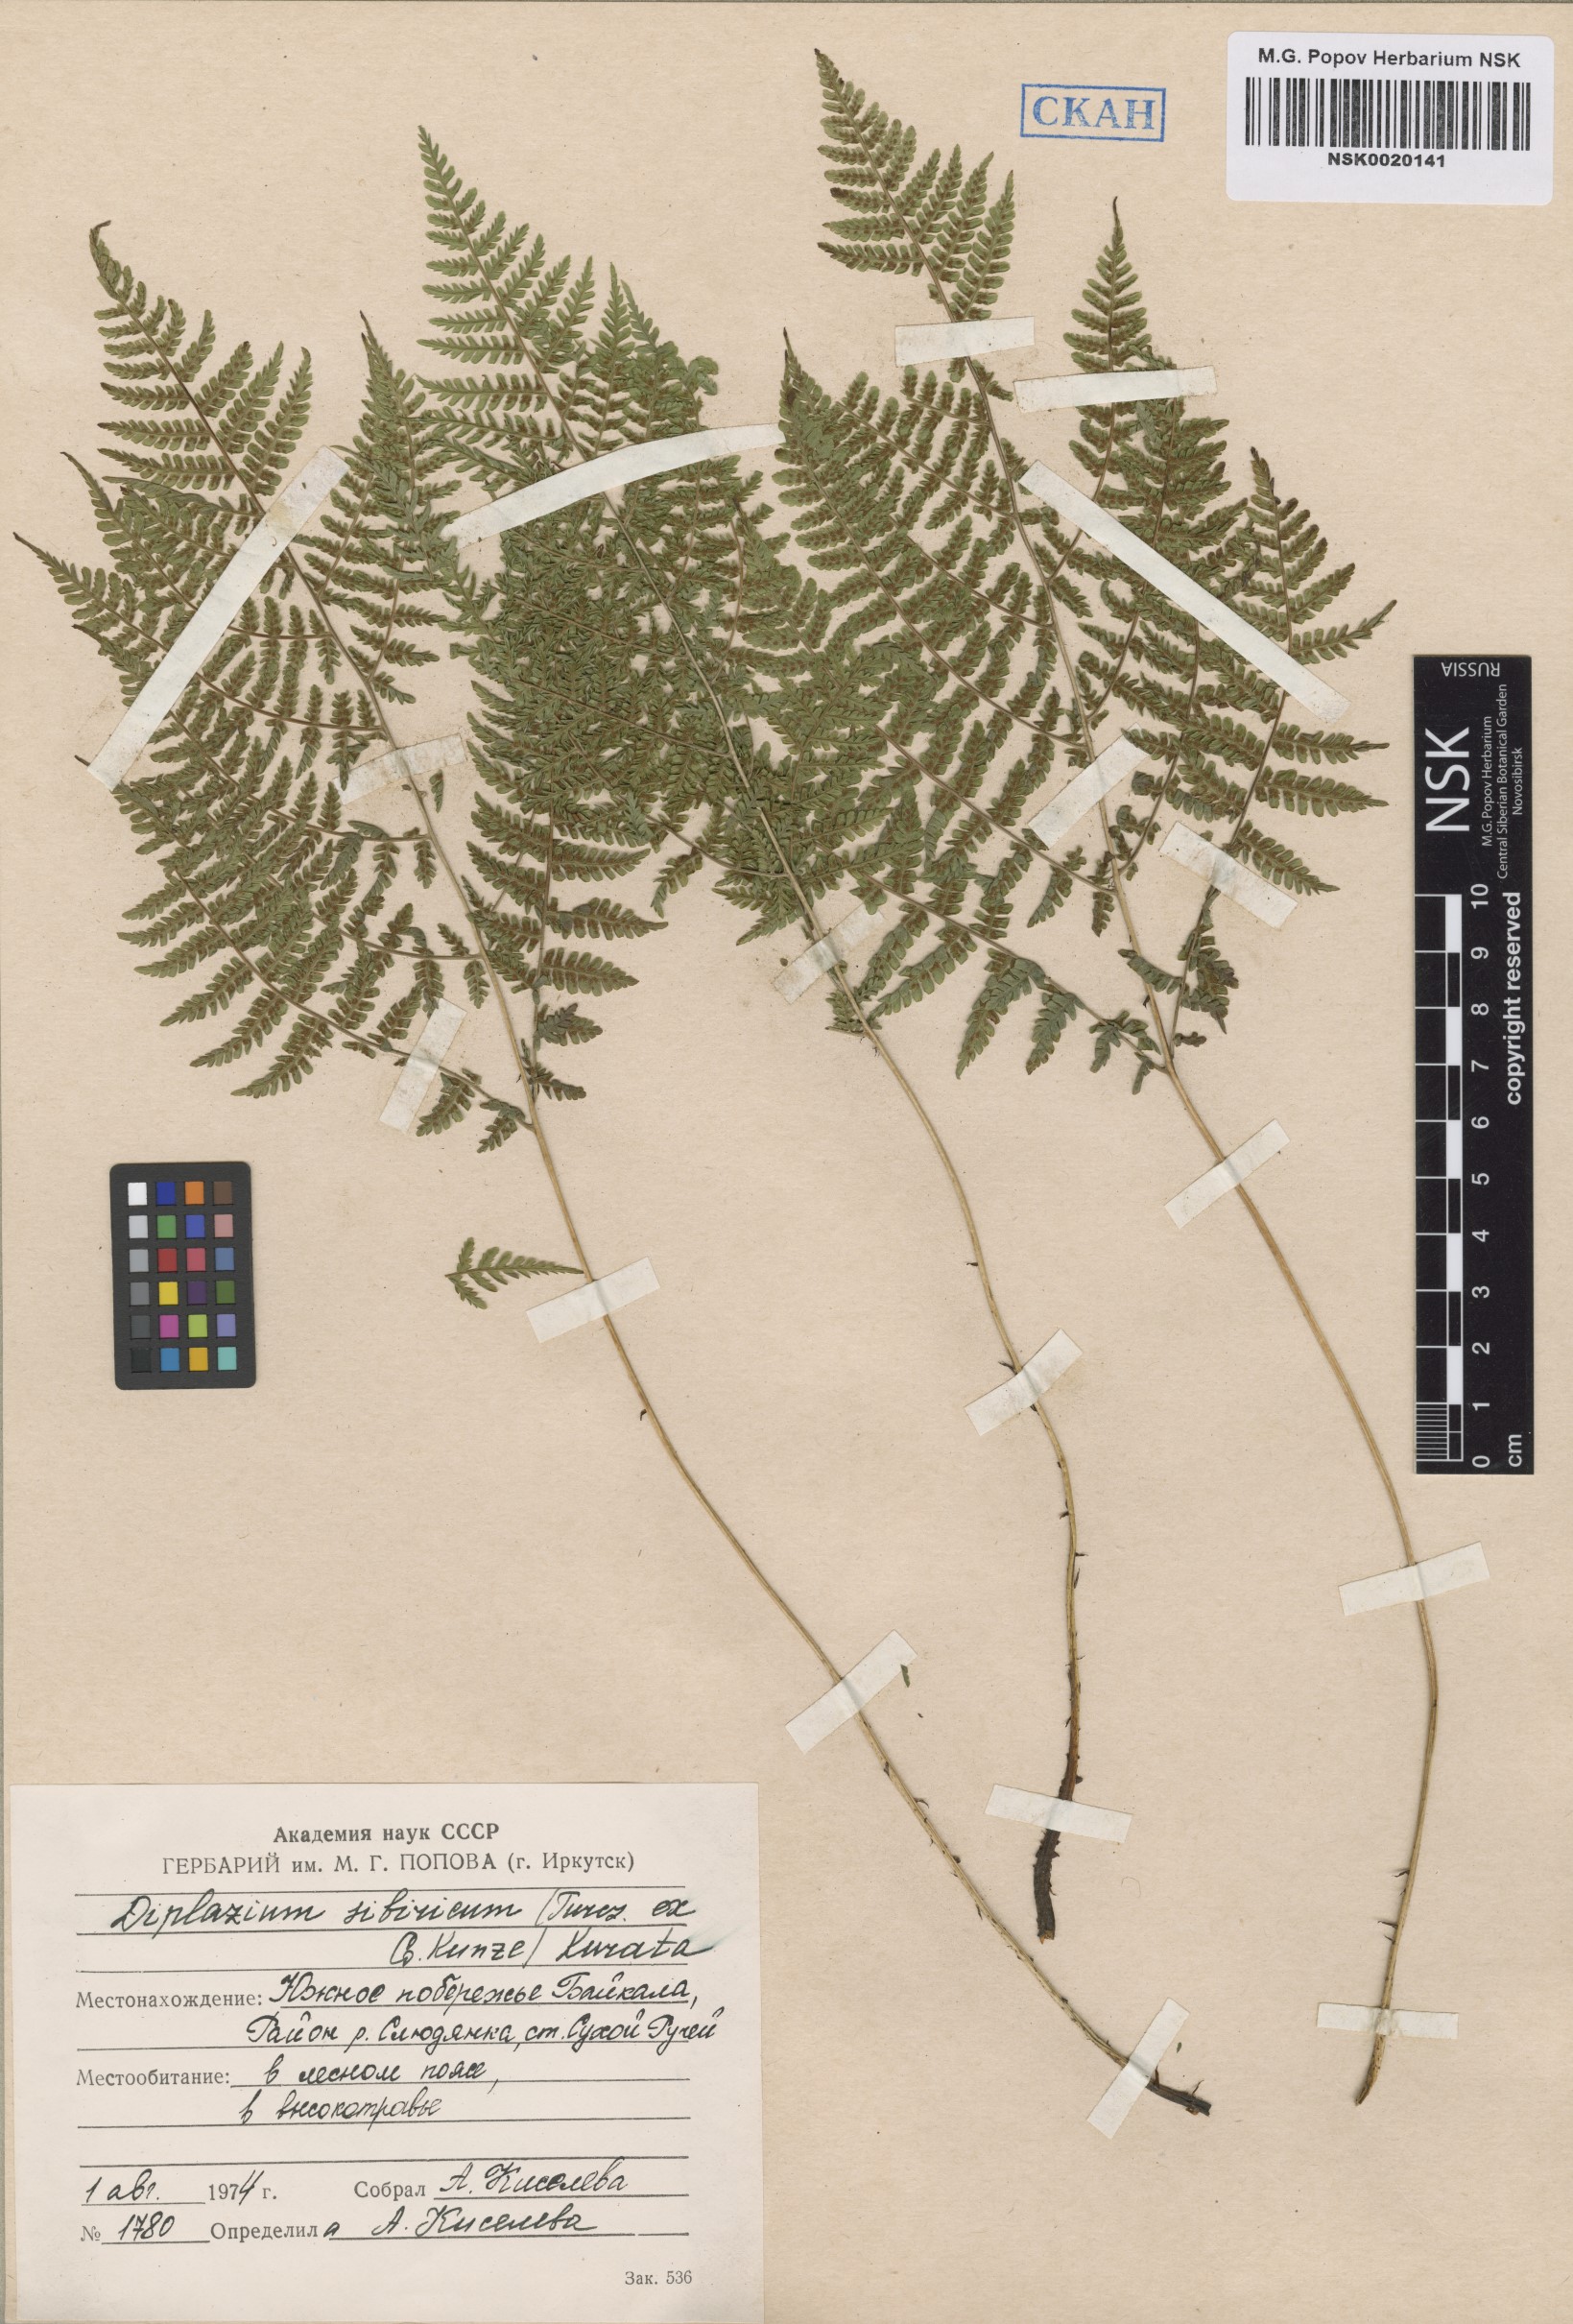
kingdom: Plantae
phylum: Tracheophyta
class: Polypodiopsida
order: Polypodiales
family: Athyriaceae
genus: Diplazium
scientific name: Diplazium sibiricum
